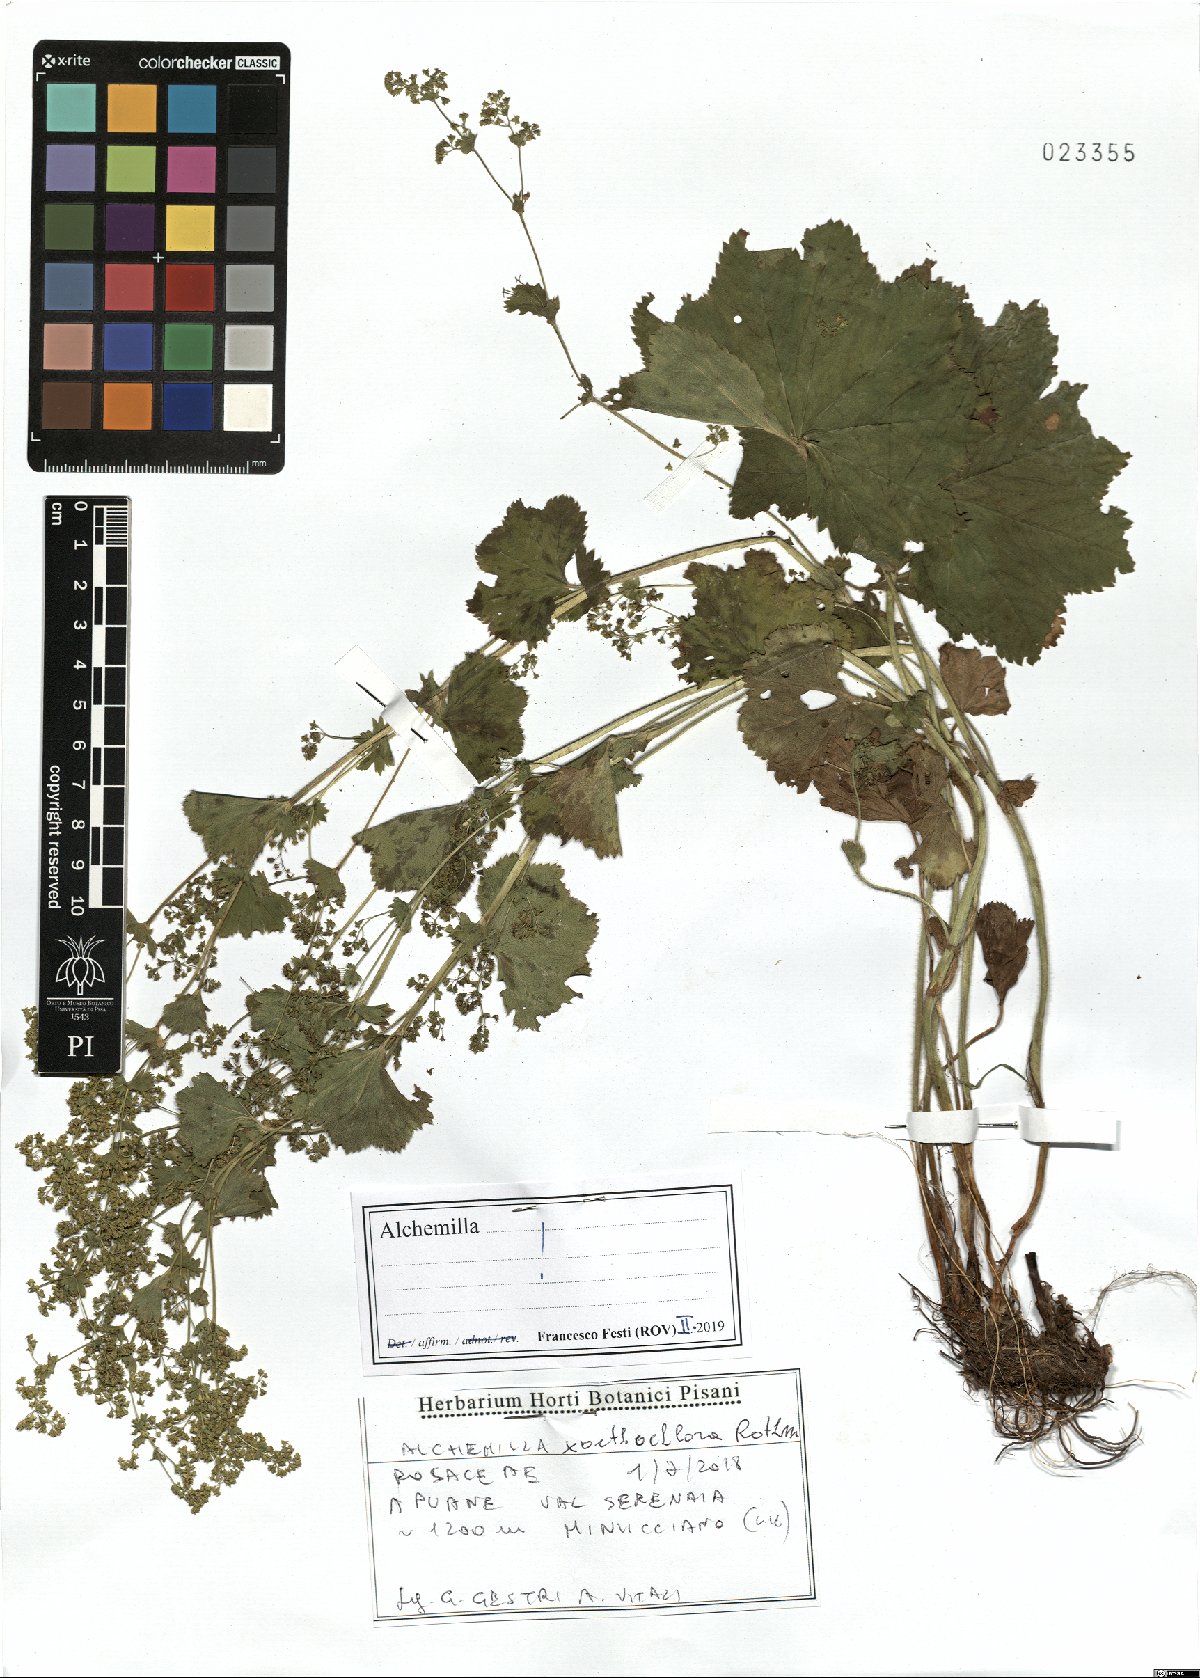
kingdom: Plantae
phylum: Tracheophyta
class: Magnoliopsida
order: Rosales
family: Rosaceae
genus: Alchemilla
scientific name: Alchemilla xanthochlora
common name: Intermediate lady's-mantle
